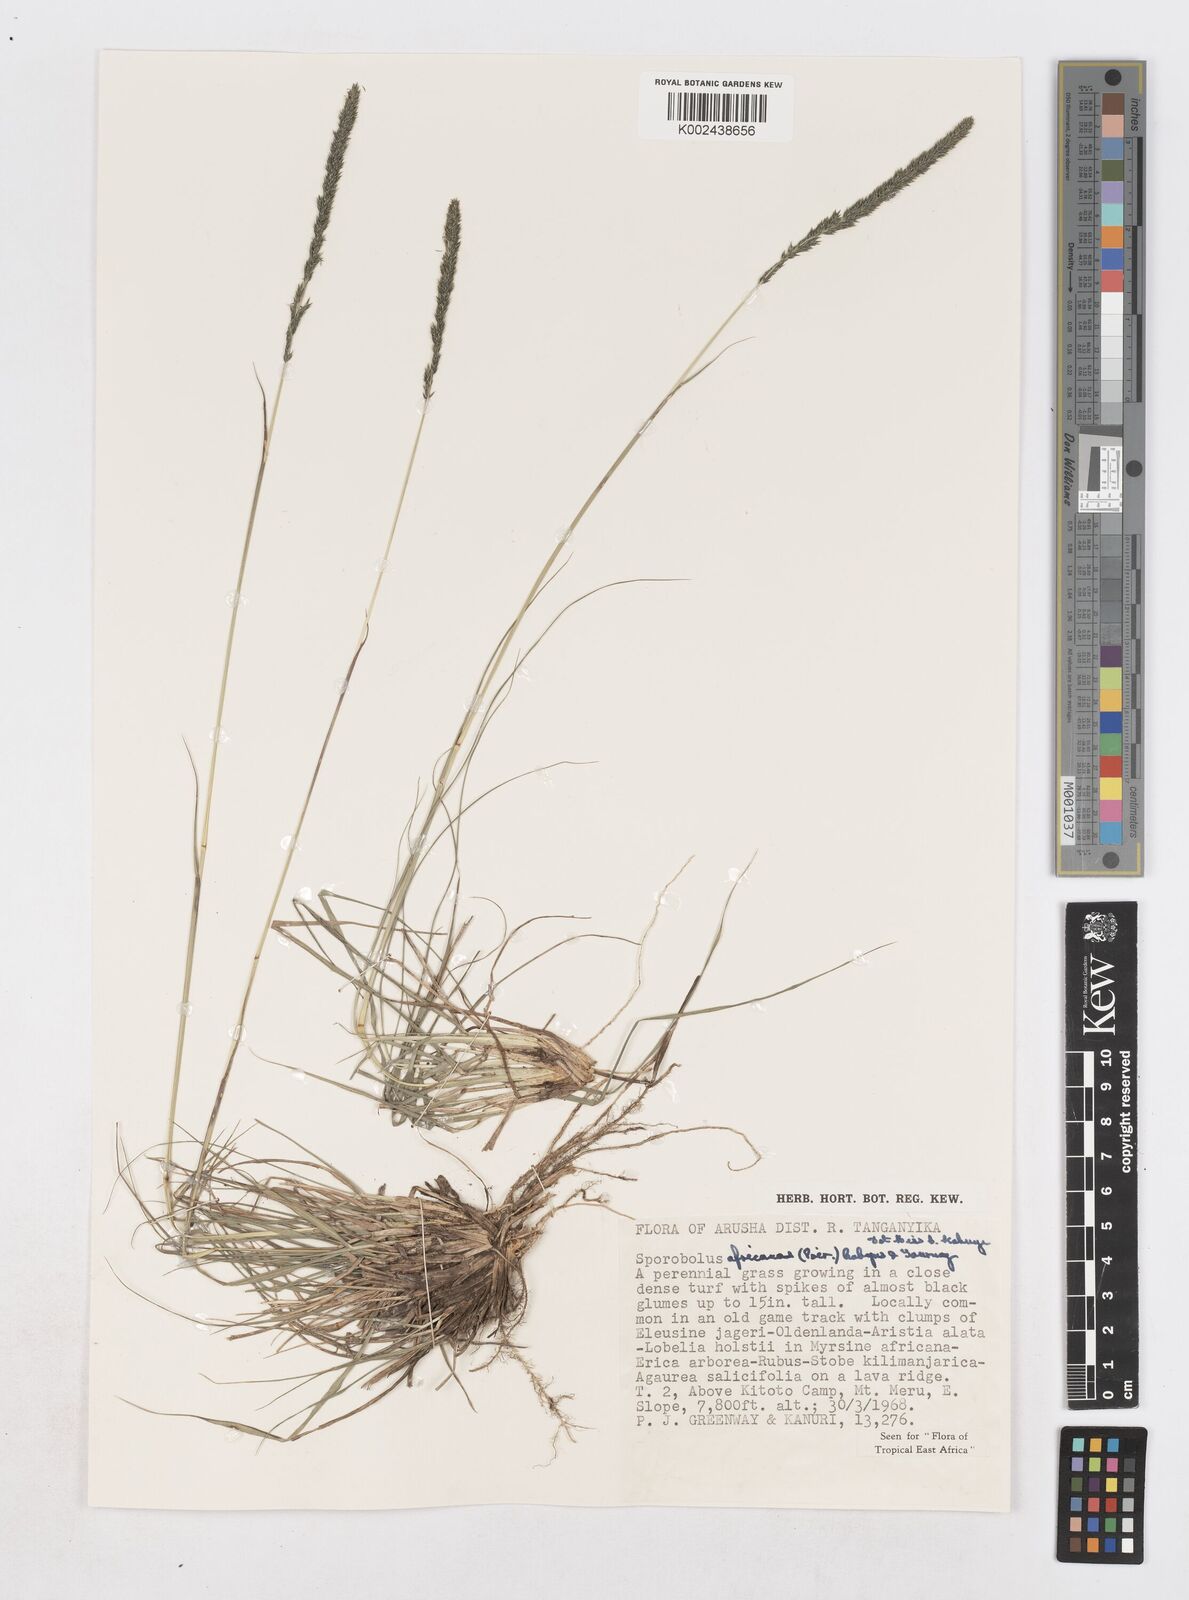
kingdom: Plantae
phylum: Tracheophyta
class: Liliopsida
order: Poales
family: Poaceae
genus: Sporobolus
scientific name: Sporobolus africanus
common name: African dropseed
